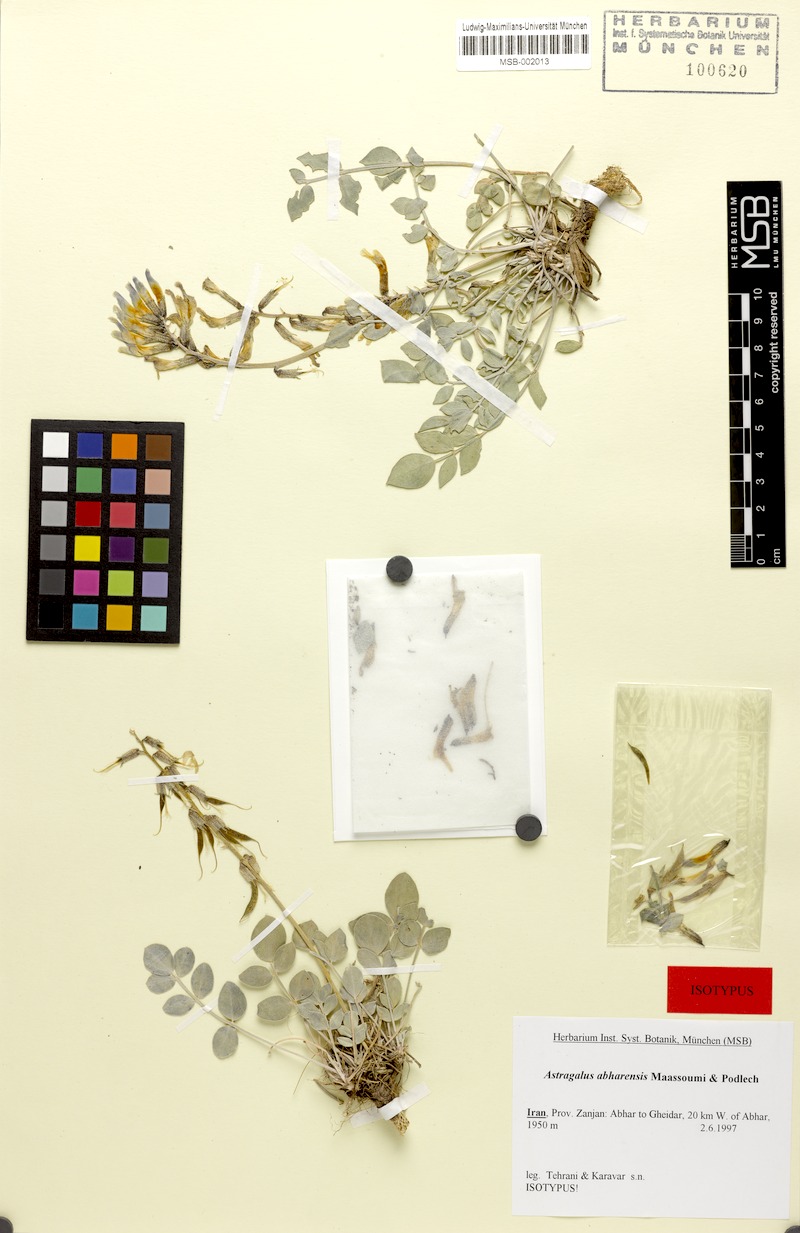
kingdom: Plantae
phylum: Tracheophyta
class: Magnoliopsida
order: Fabales
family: Fabaceae
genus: Astragalus
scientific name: Astragalus abharensis
